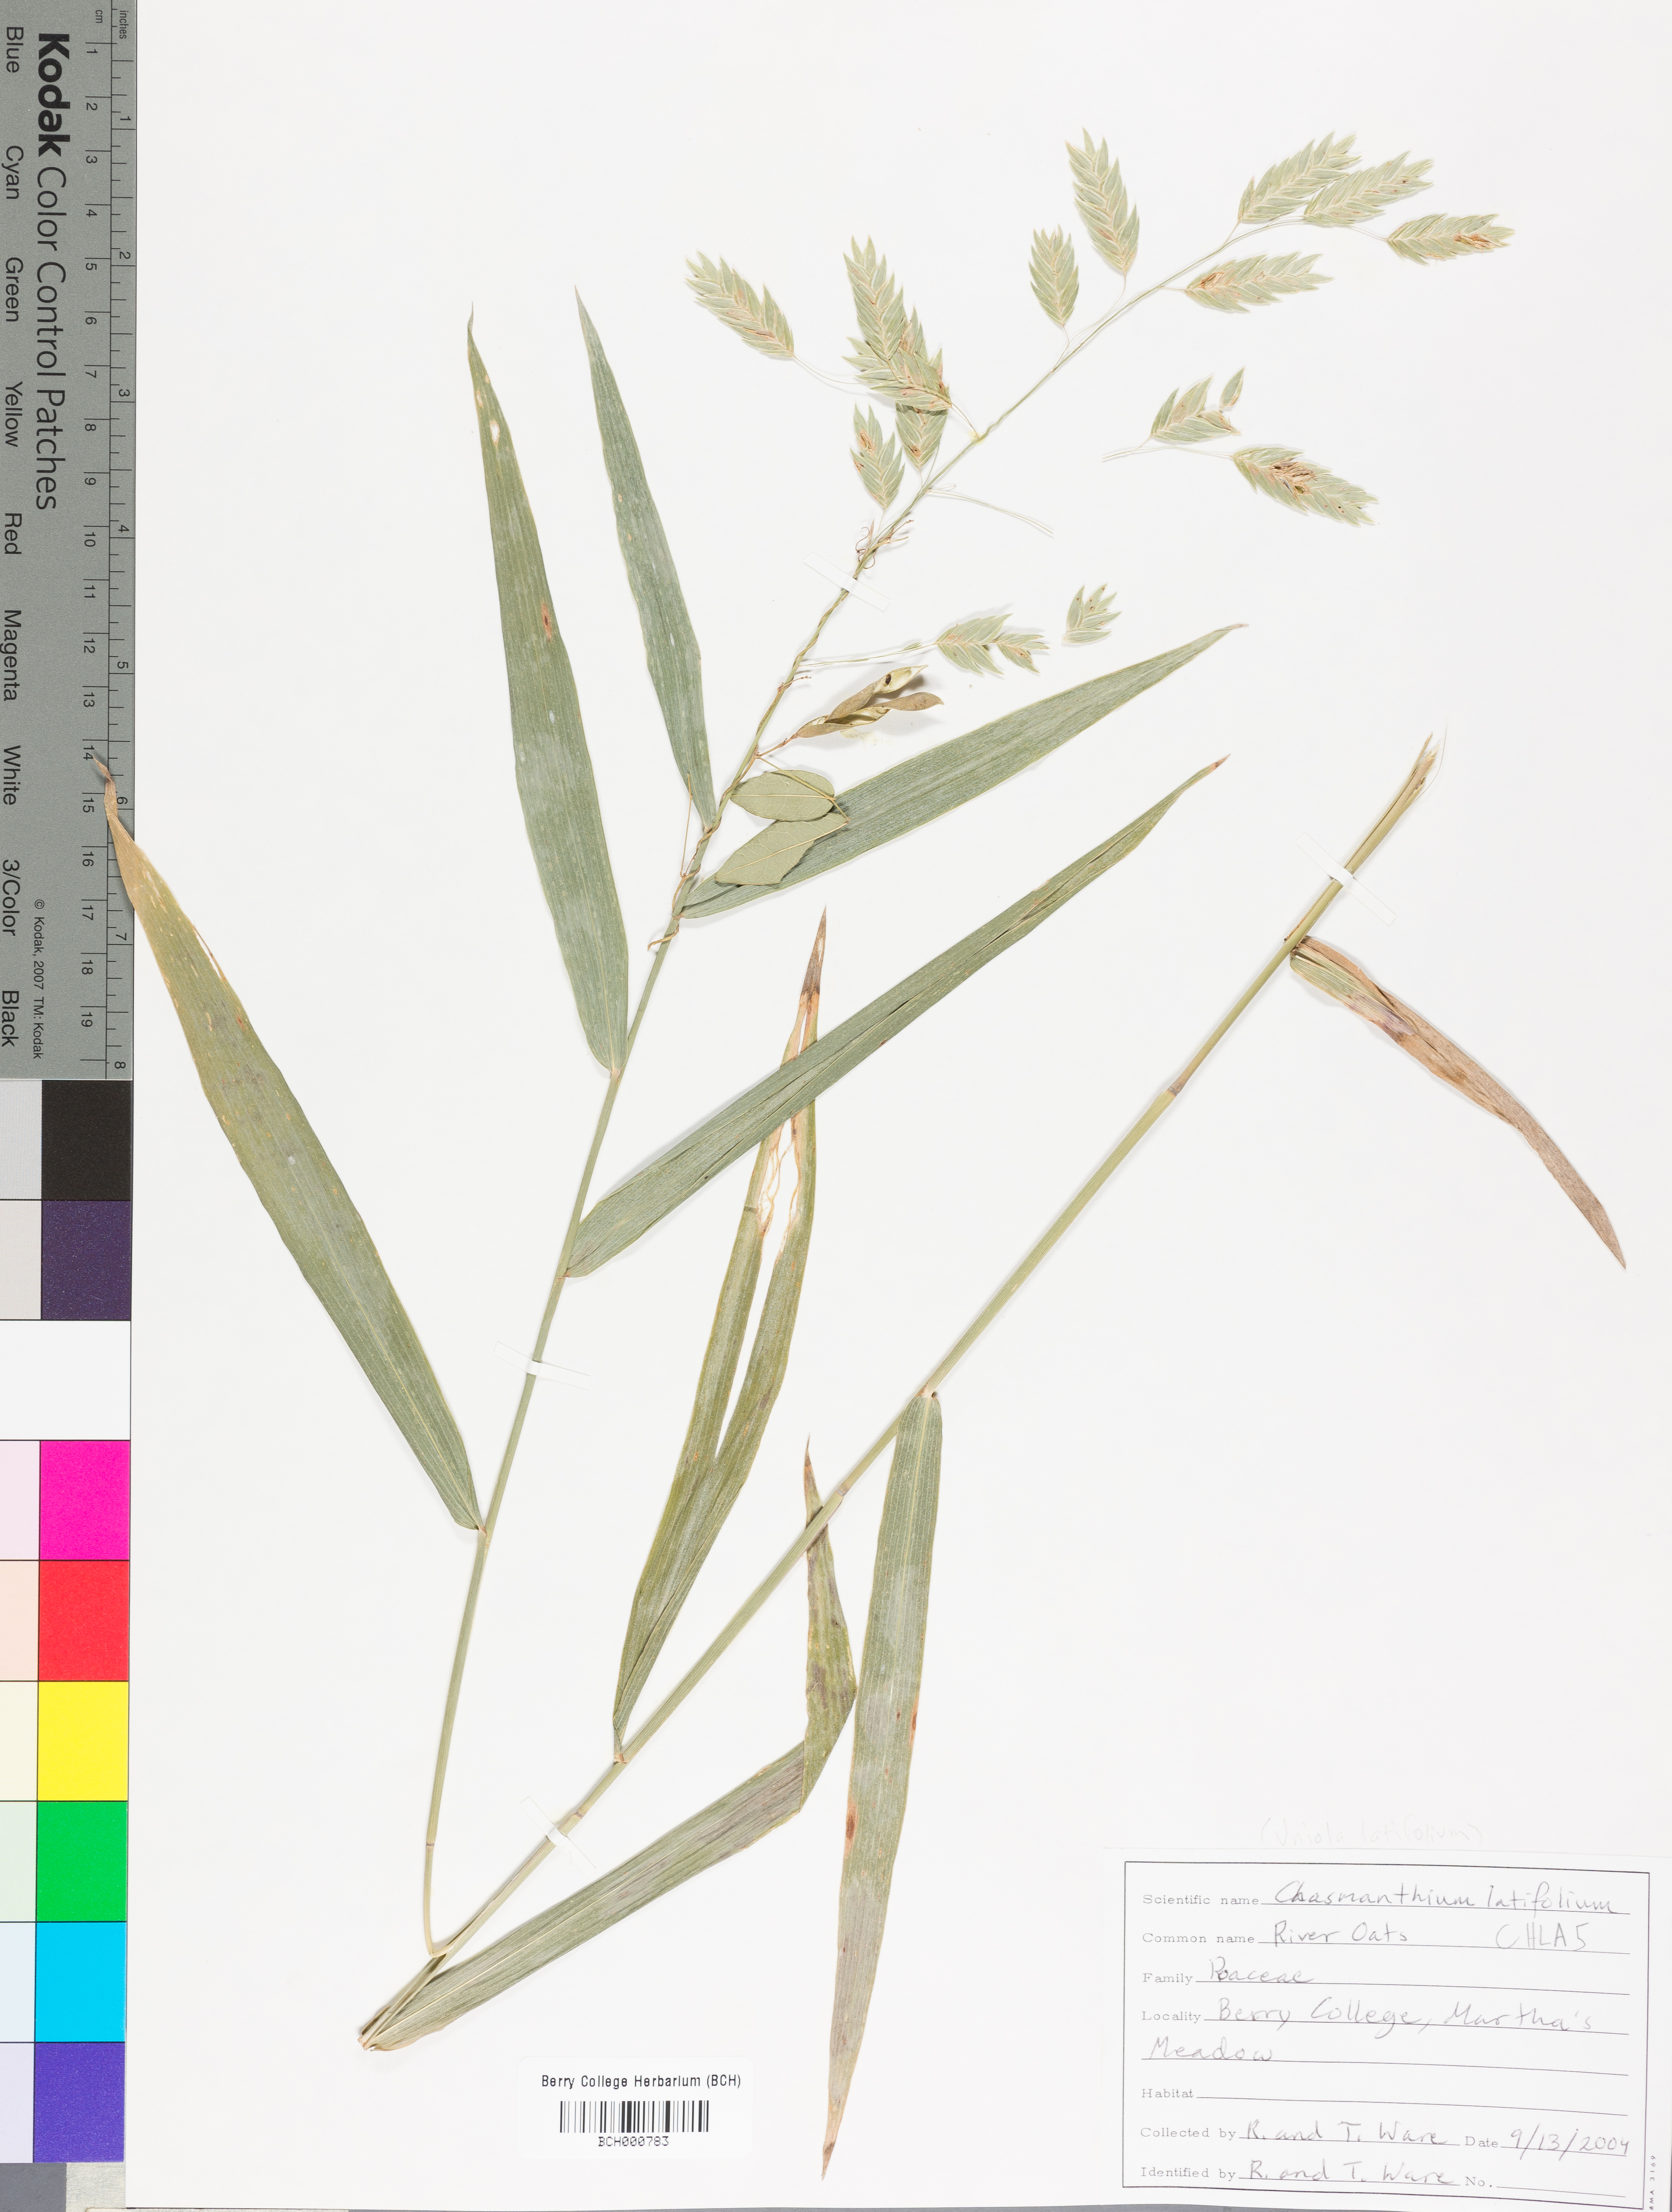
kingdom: Plantae
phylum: Tracheophyta
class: Liliopsida
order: Poales
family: Poaceae
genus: Chasmanthium
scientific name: Chasmanthium latifolium
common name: Broad-leaved chasmanthium
